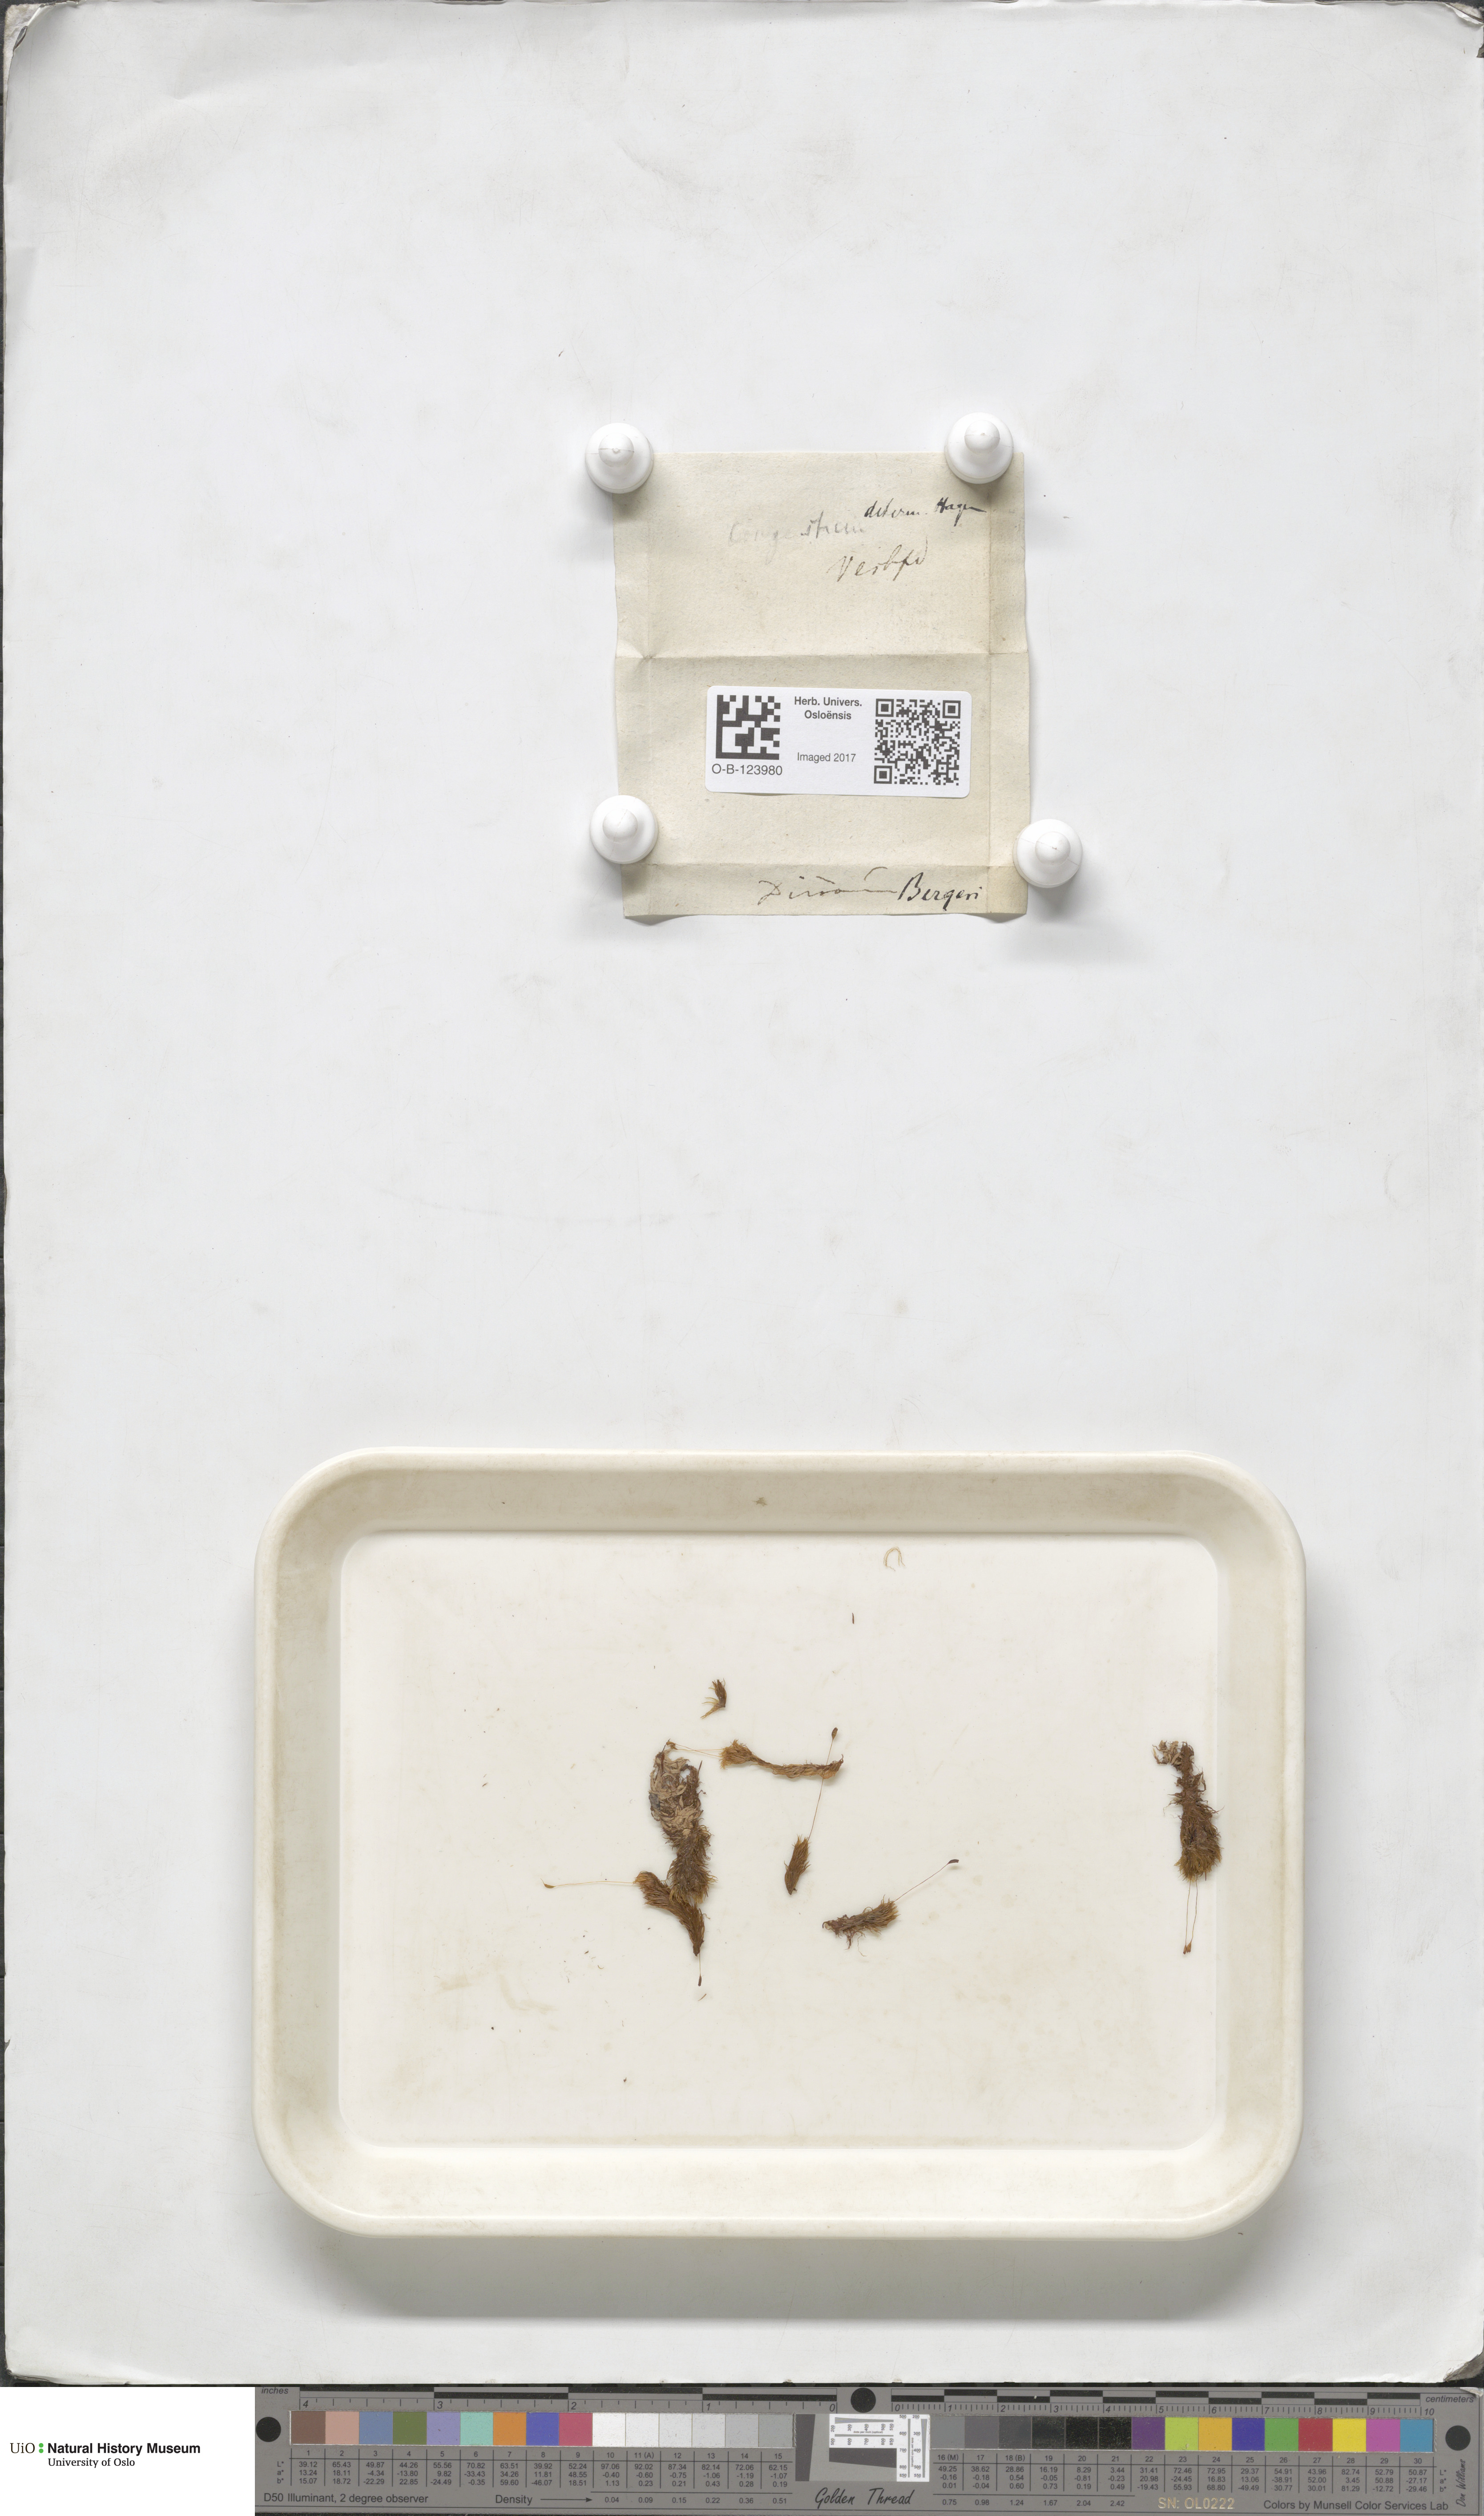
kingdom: Plantae
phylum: Bryophyta
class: Bryopsida
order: Dicranales
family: Dicranaceae
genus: Dicranum
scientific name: Dicranum undulatum
